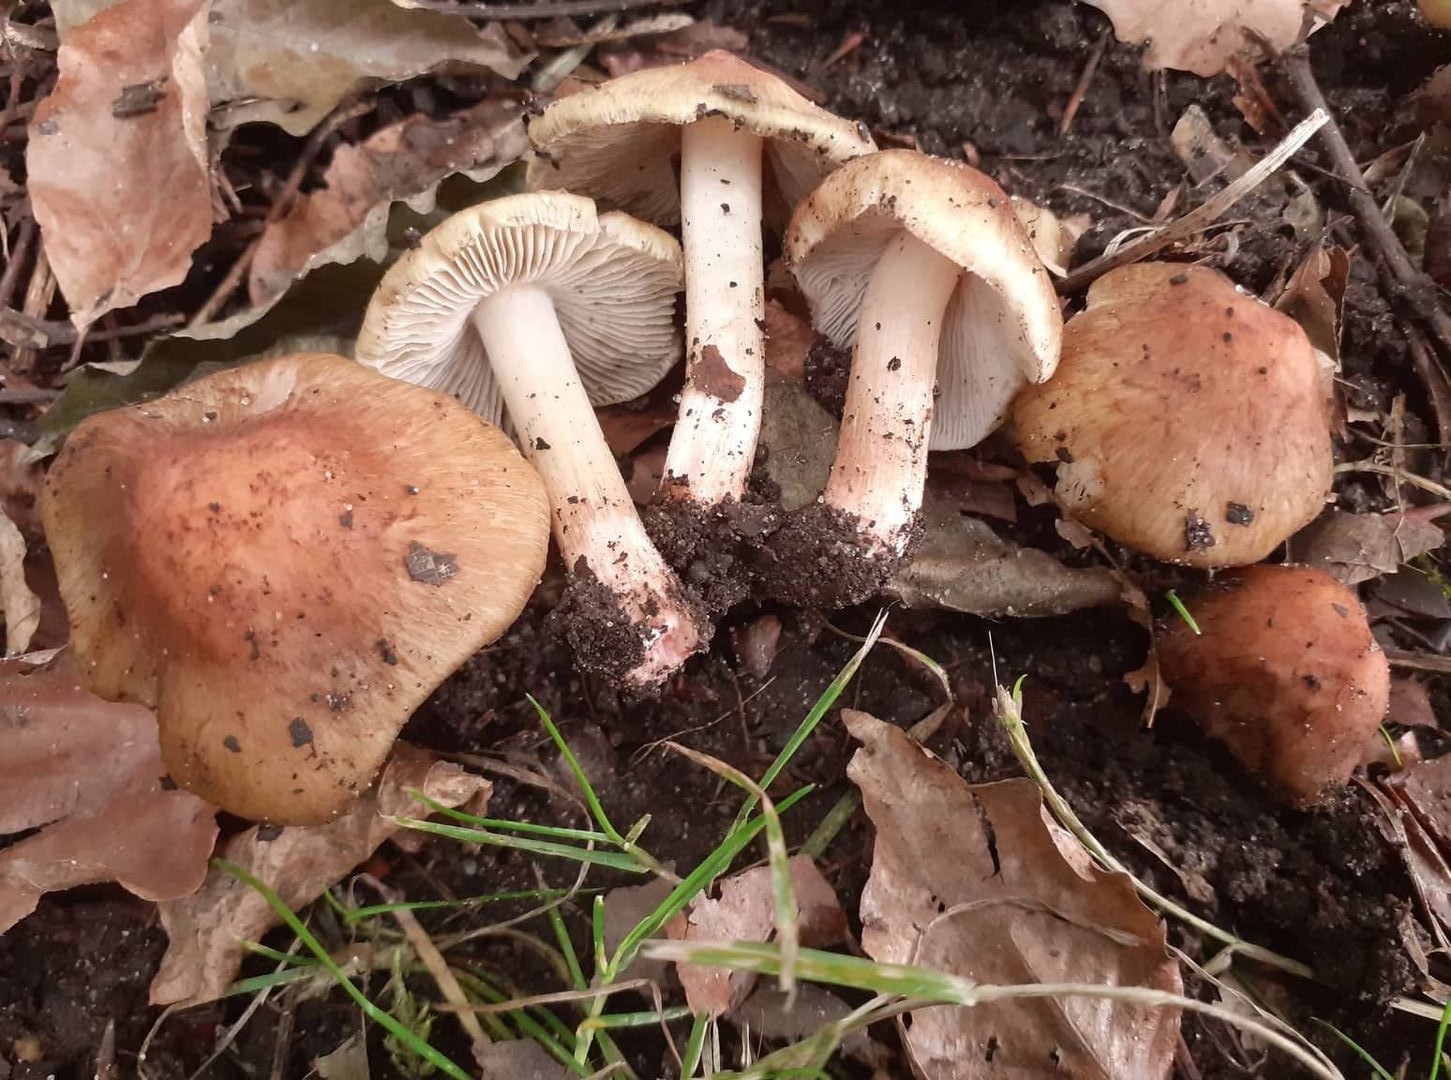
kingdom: Fungi
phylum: Basidiomycota
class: Agaricomycetes
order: Agaricales
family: Inocybaceae
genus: Inosperma
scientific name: Inosperma rhodiolum
